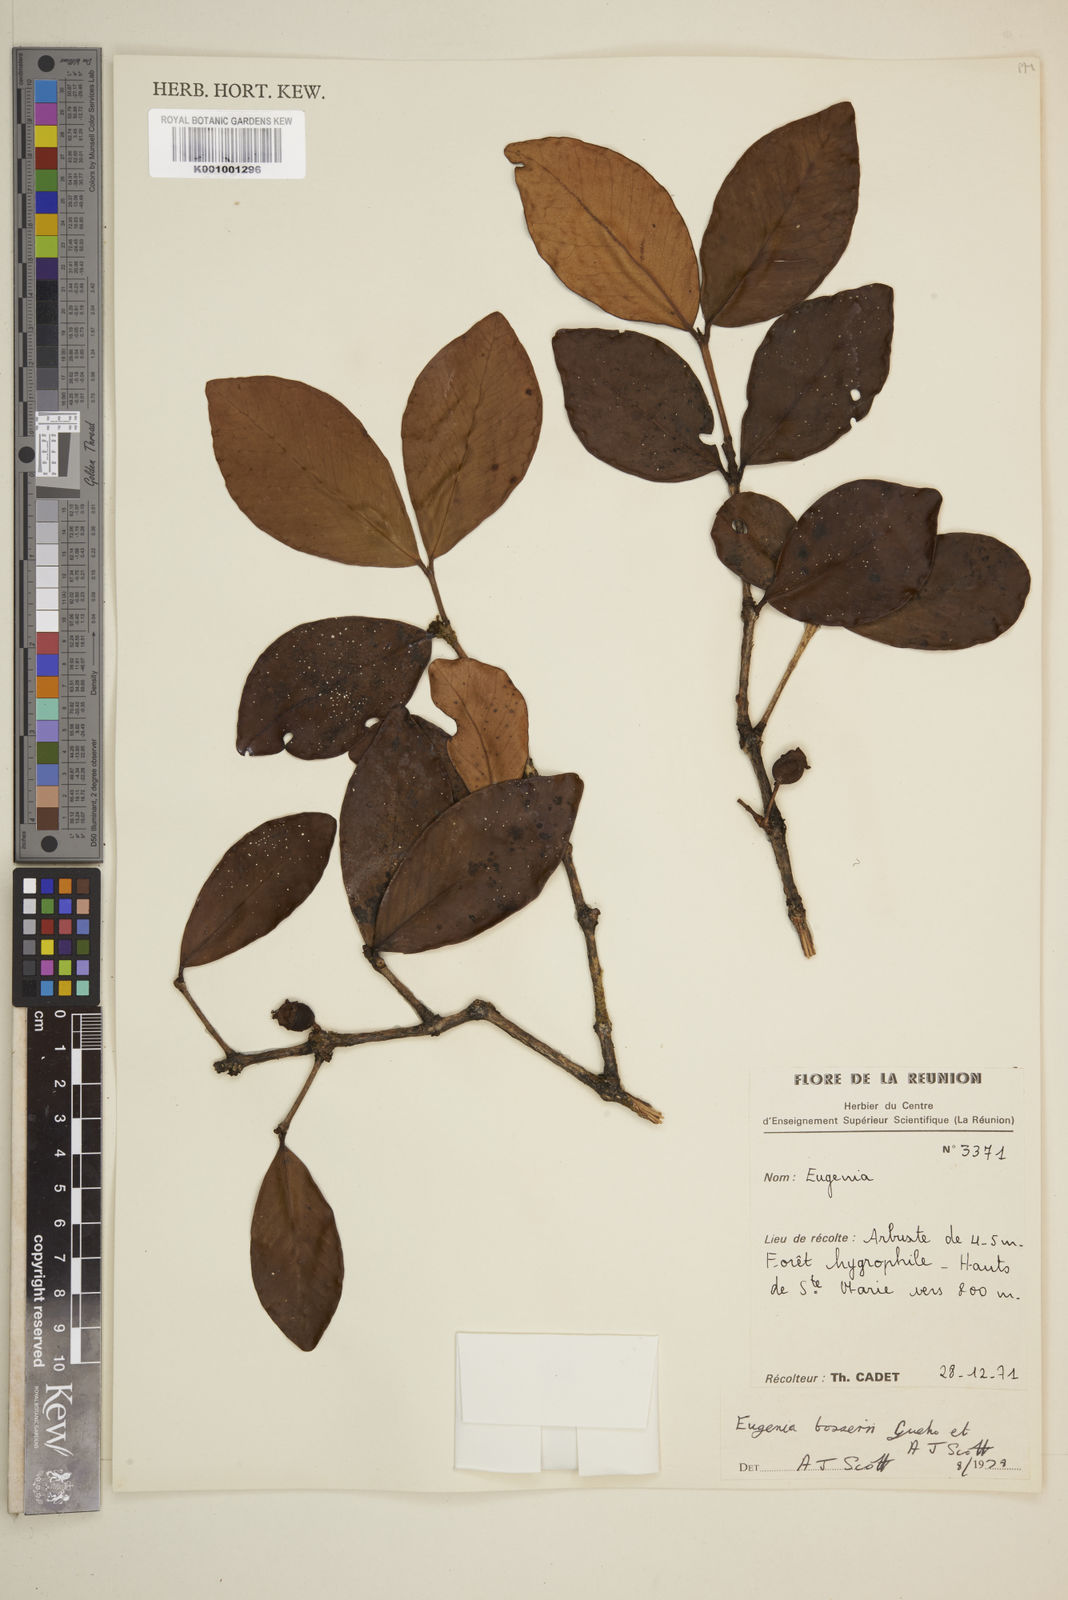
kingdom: Plantae
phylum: Tracheophyta
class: Magnoliopsida
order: Myrtales
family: Myrtaceae
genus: Eugenia
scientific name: Eugenia
